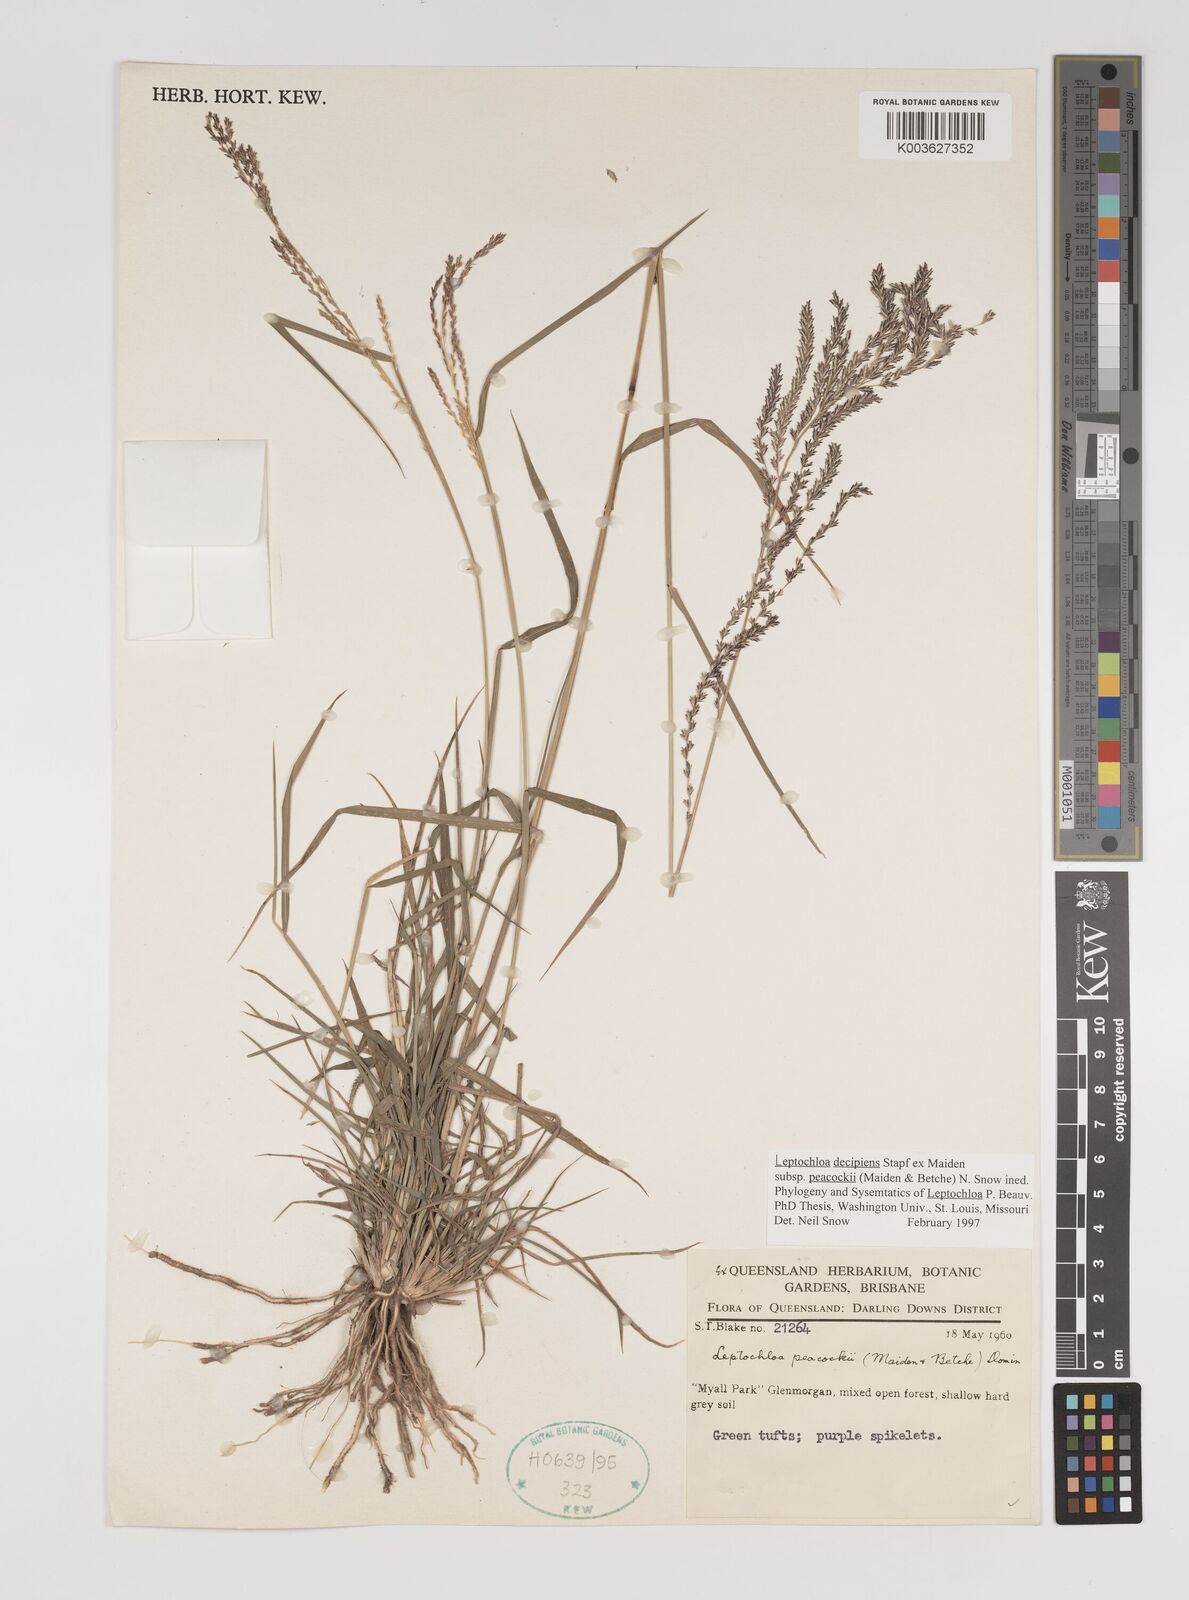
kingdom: Plantae
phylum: Tracheophyta
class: Liliopsida
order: Poales
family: Poaceae
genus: Leptochloa
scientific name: Leptochloa decipiens
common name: Australian sprangletop
